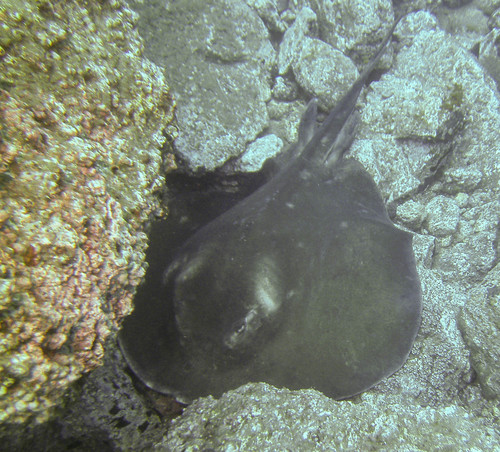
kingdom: Animalia
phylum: Chordata
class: Elasmobranchii
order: Myliobatiformes
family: Dasyatidae
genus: Taeniura
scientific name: Taeniura grabata
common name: Round stingray
